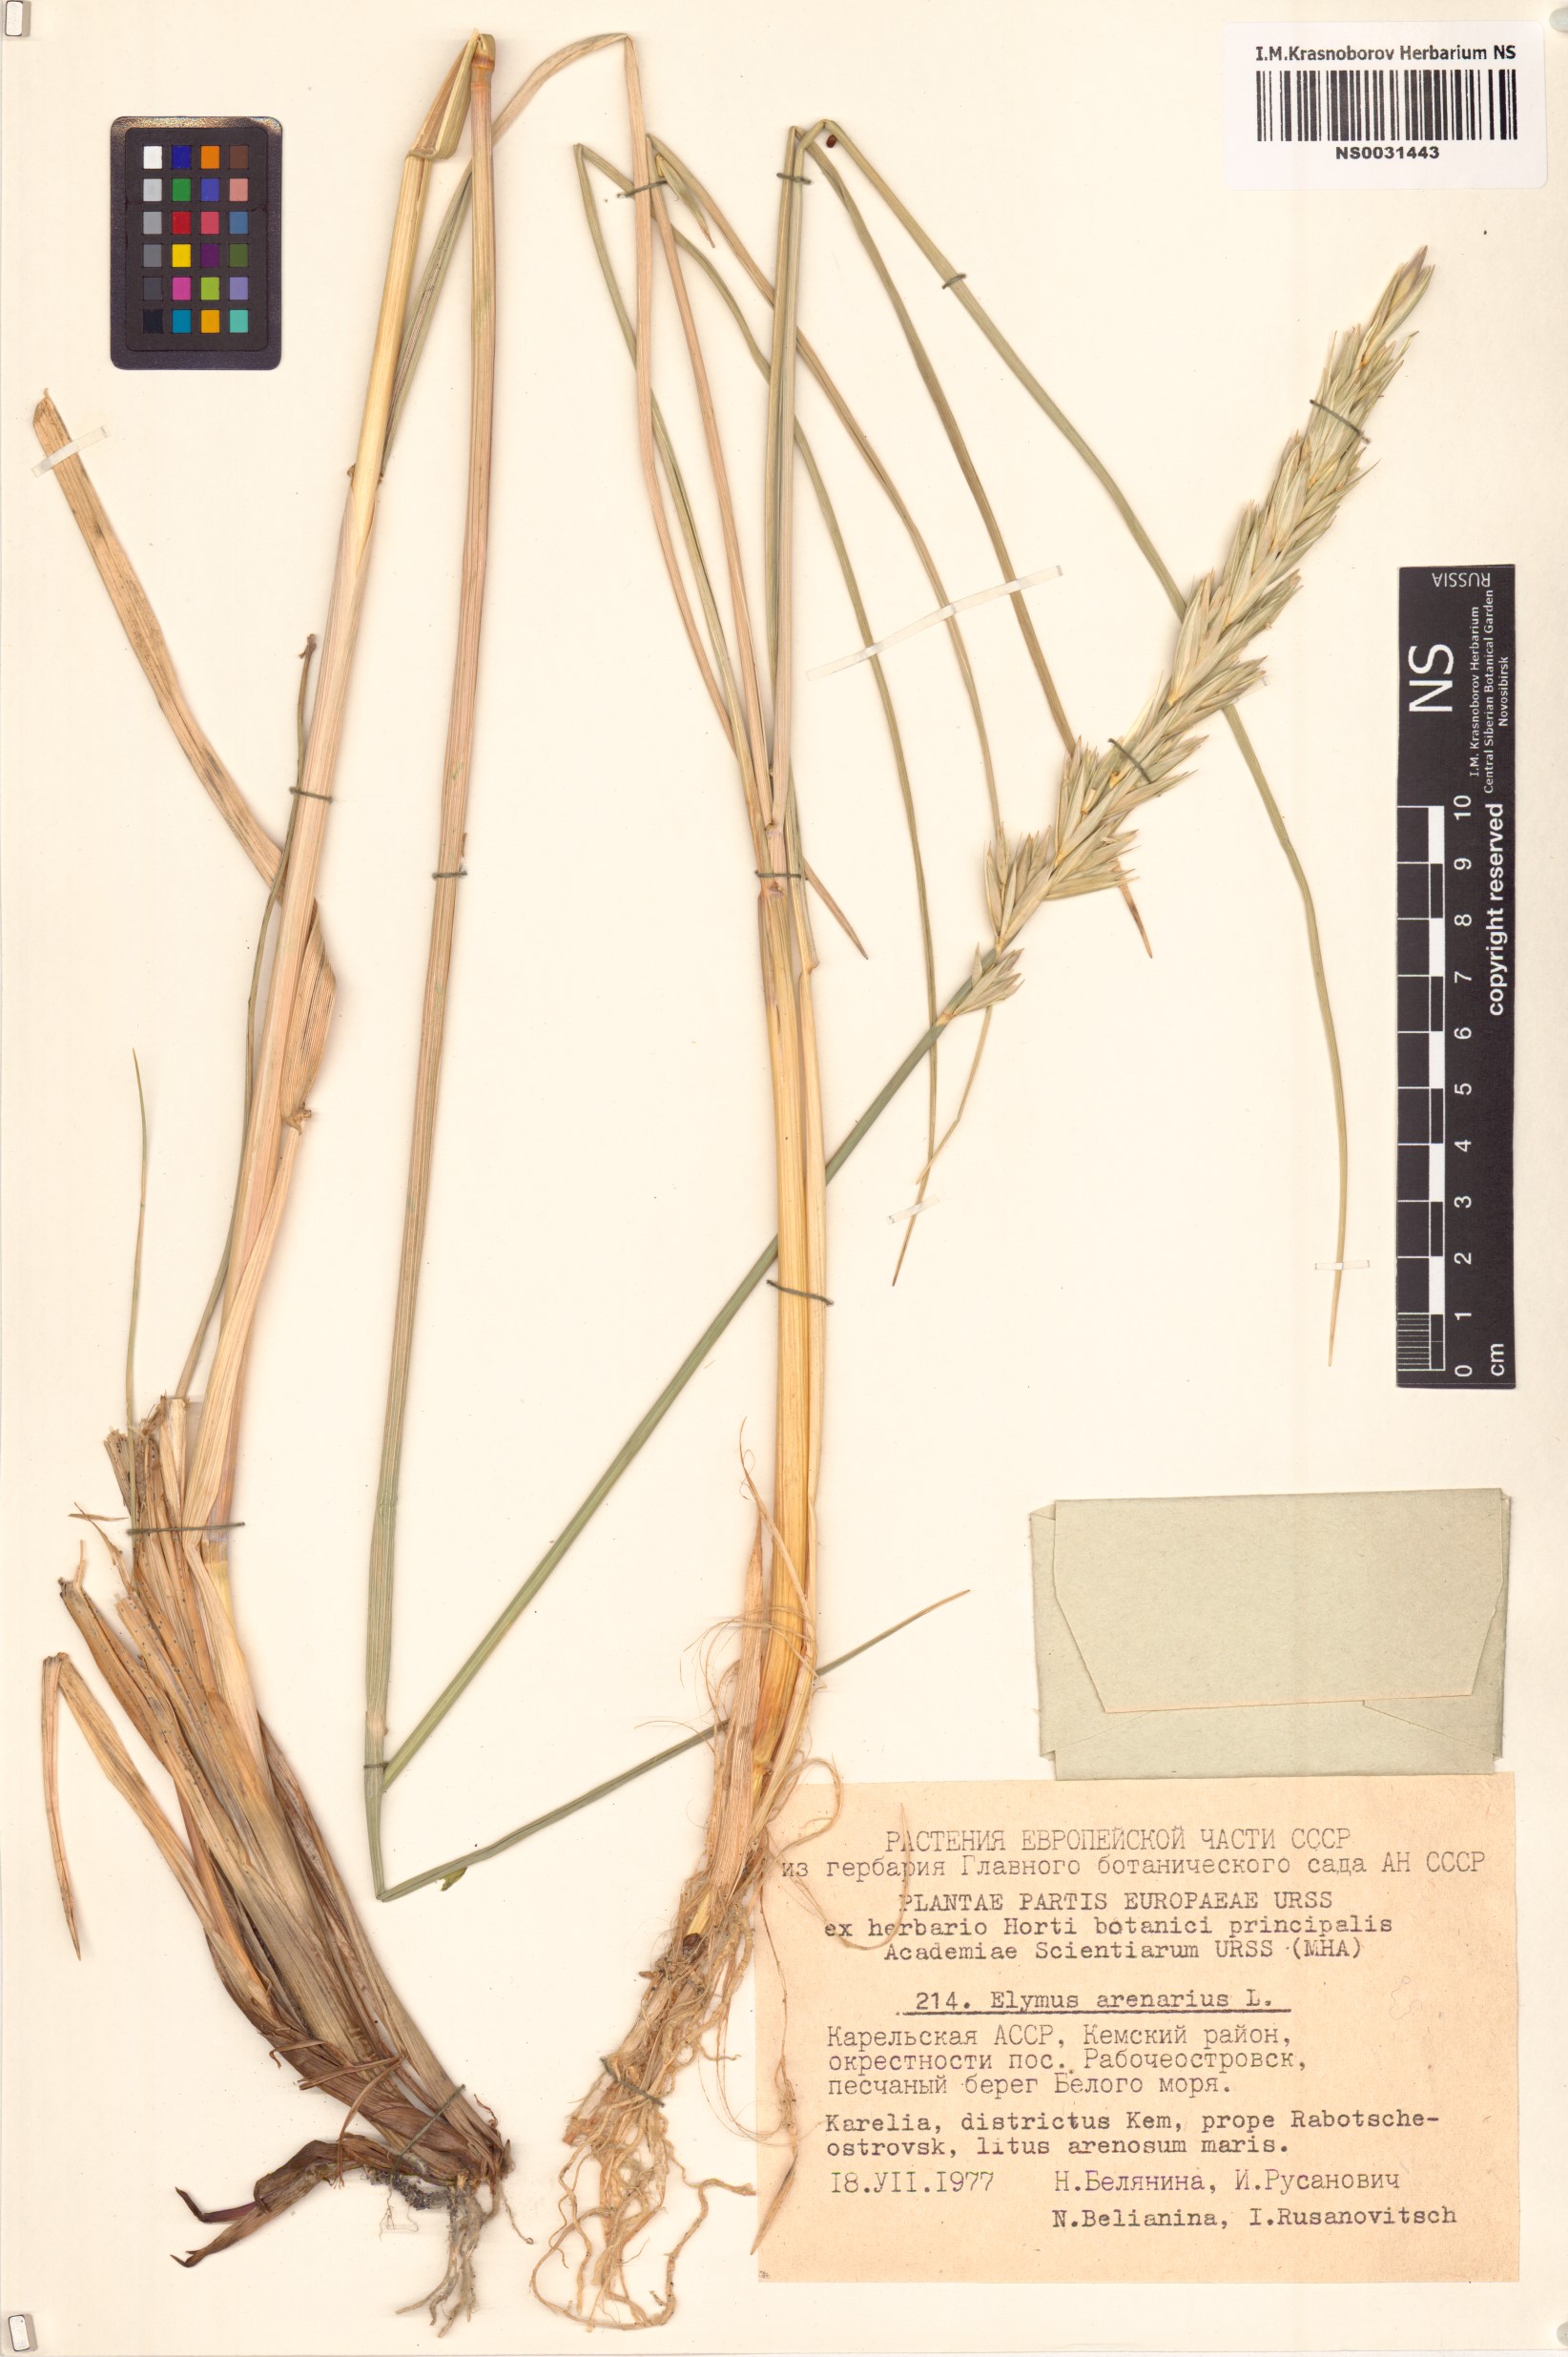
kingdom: Plantae
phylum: Tracheophyta
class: Liliopsida
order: Poales
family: Poaceae
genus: Leymus
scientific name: Leymus arenarius
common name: Lyme-grass
